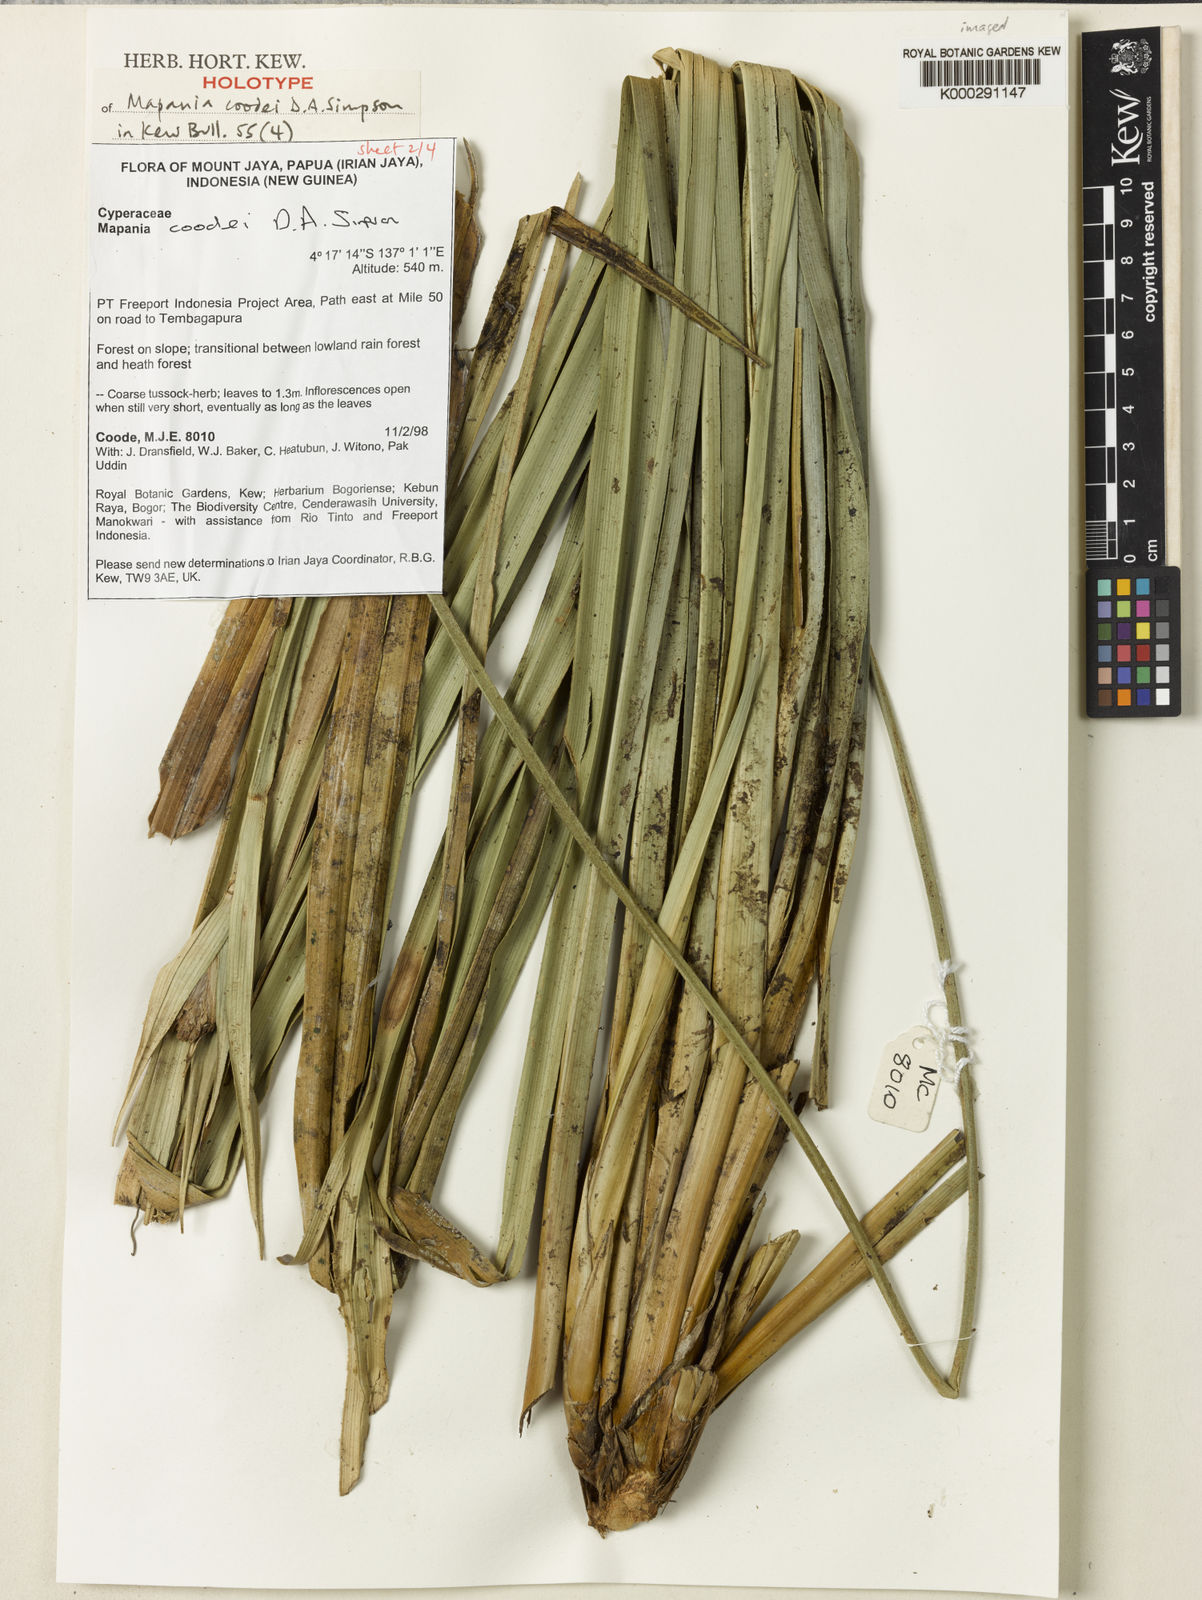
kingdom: Plantae
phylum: Tracheophyta
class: Liliopsida
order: Poales
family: Cyperaceae
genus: Mapania
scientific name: Mapania coodei
